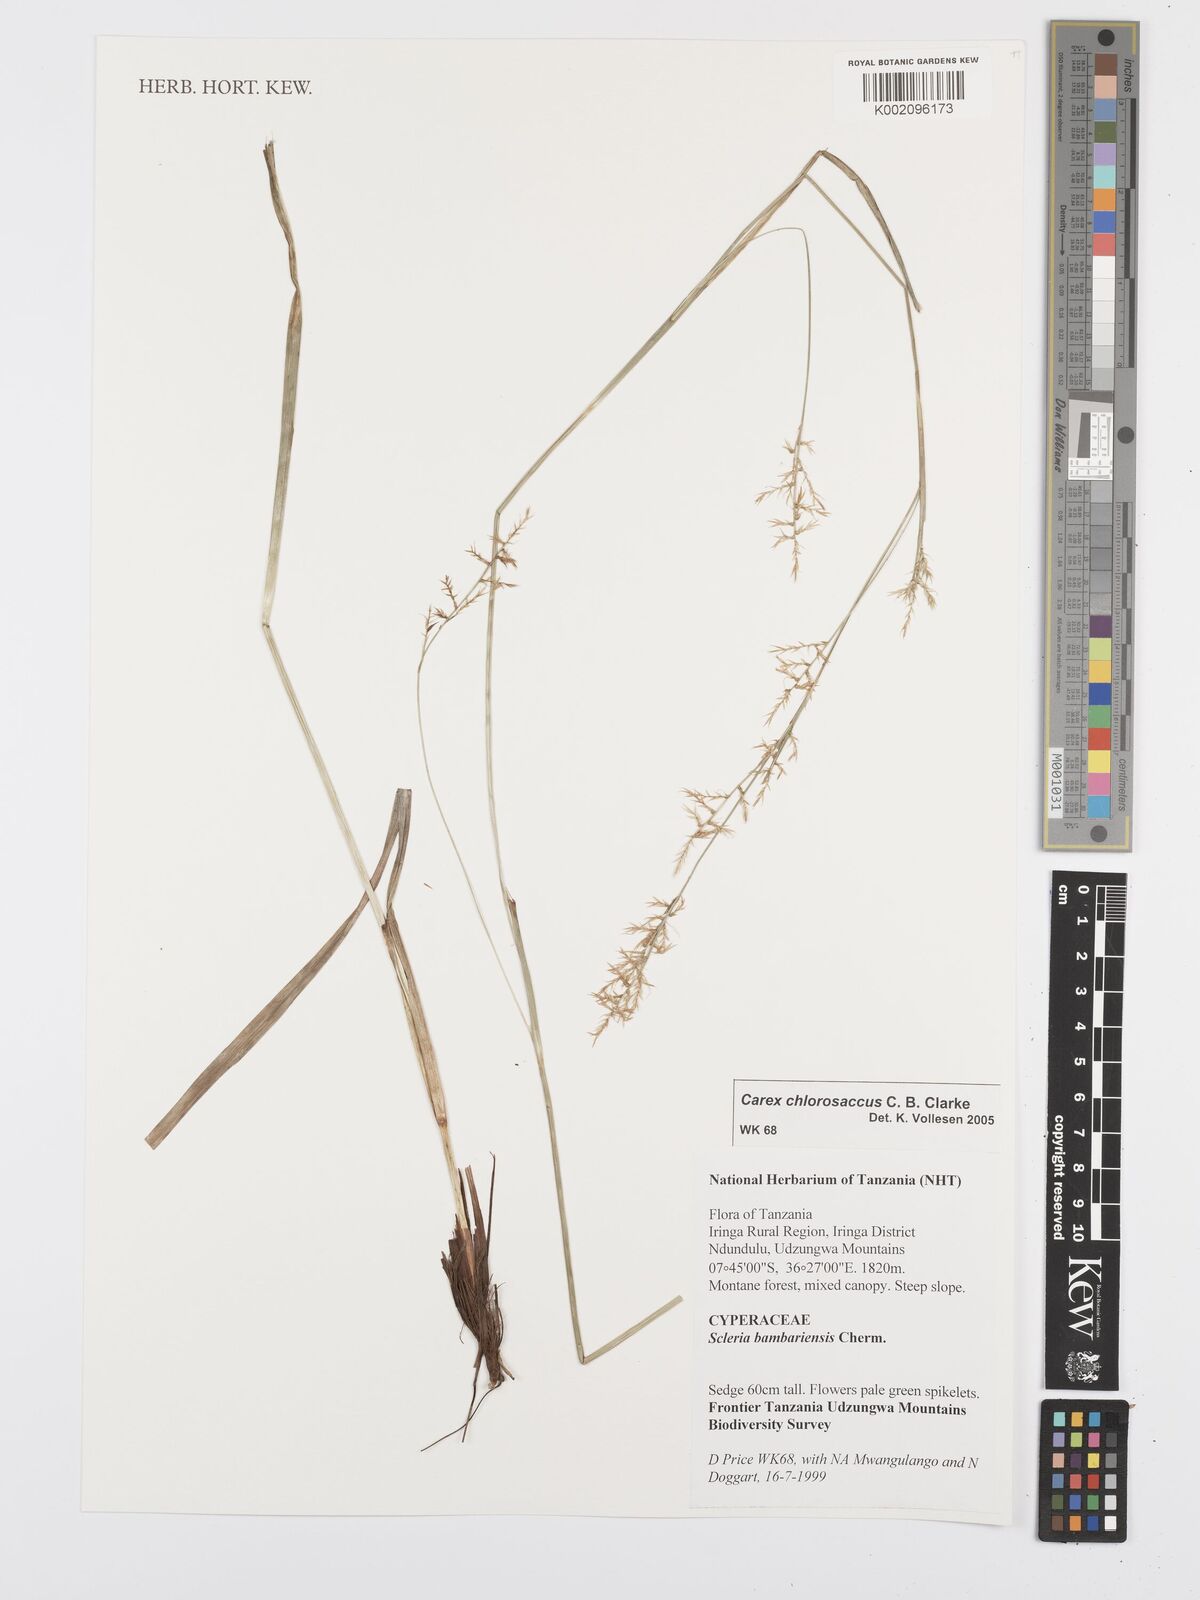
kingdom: Plantae
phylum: Tracheophyta
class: Liliopsida
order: Poales
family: Cyperaceae
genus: Carex
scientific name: Carex chlorosaccus
